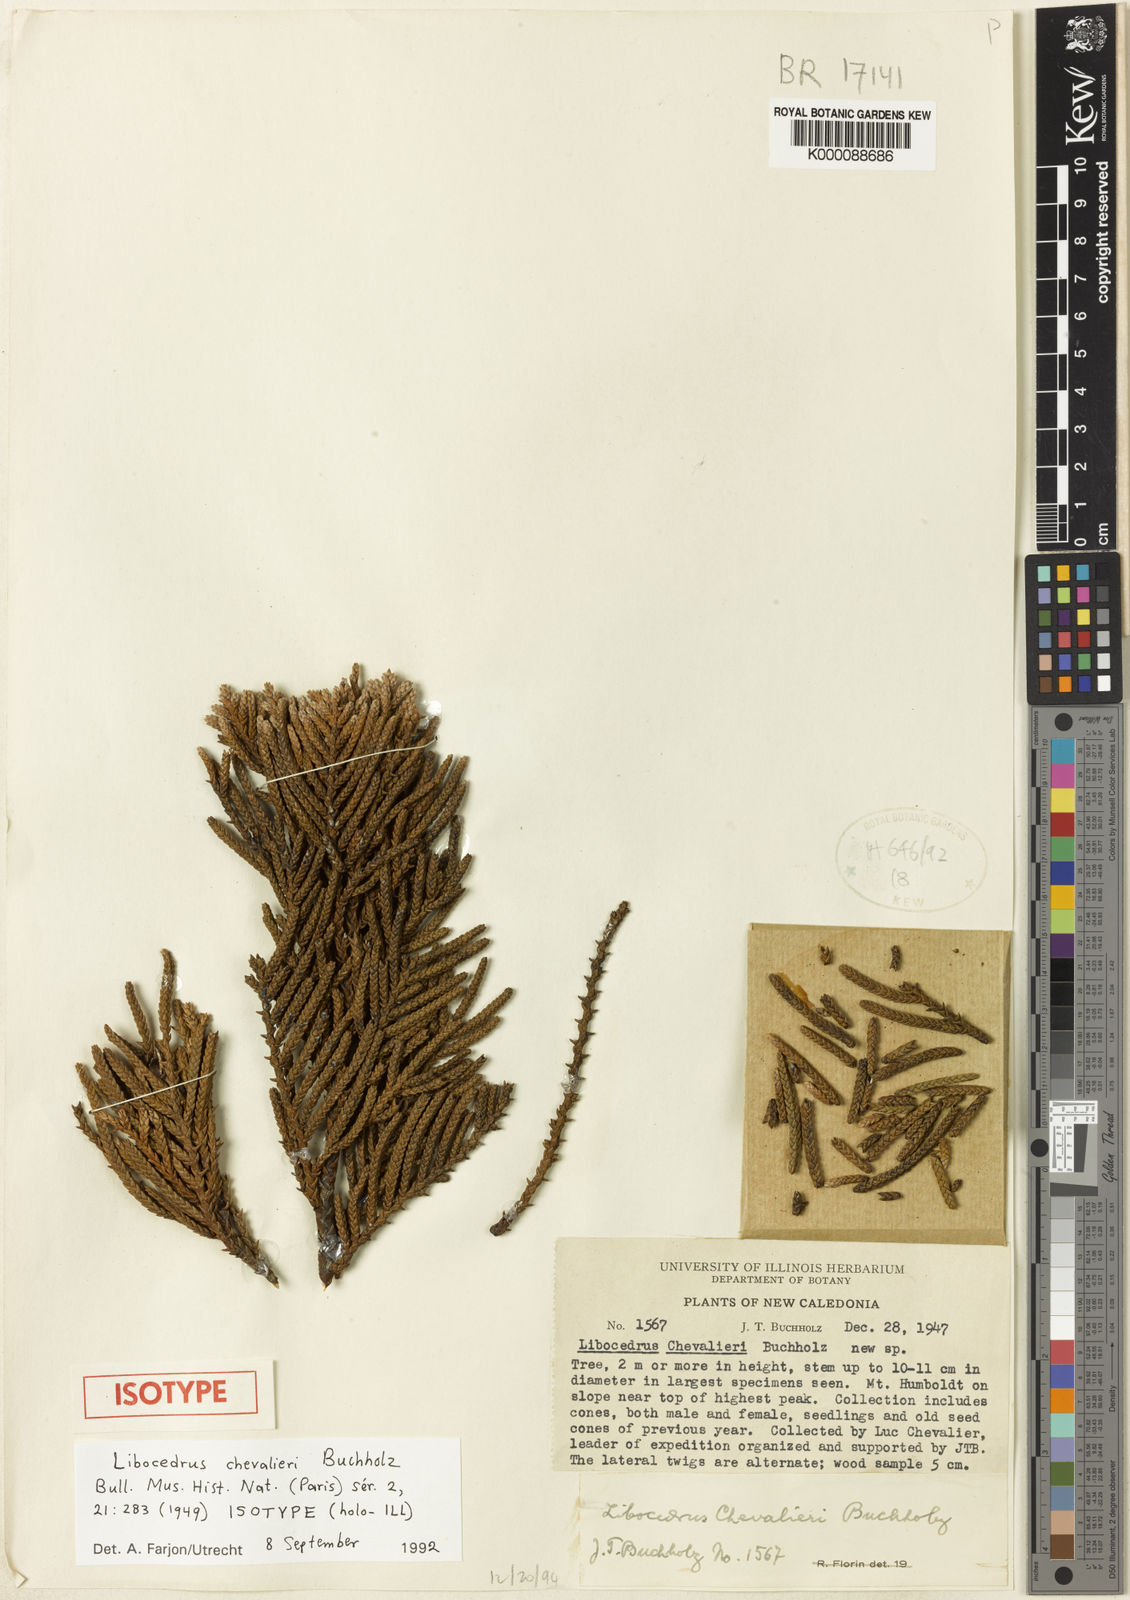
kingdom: Plantae
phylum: Tracheophyta
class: Pinopsida
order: Pinales
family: Cupressaceae
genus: Libocedrus
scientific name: Libocedrus chevalieri
